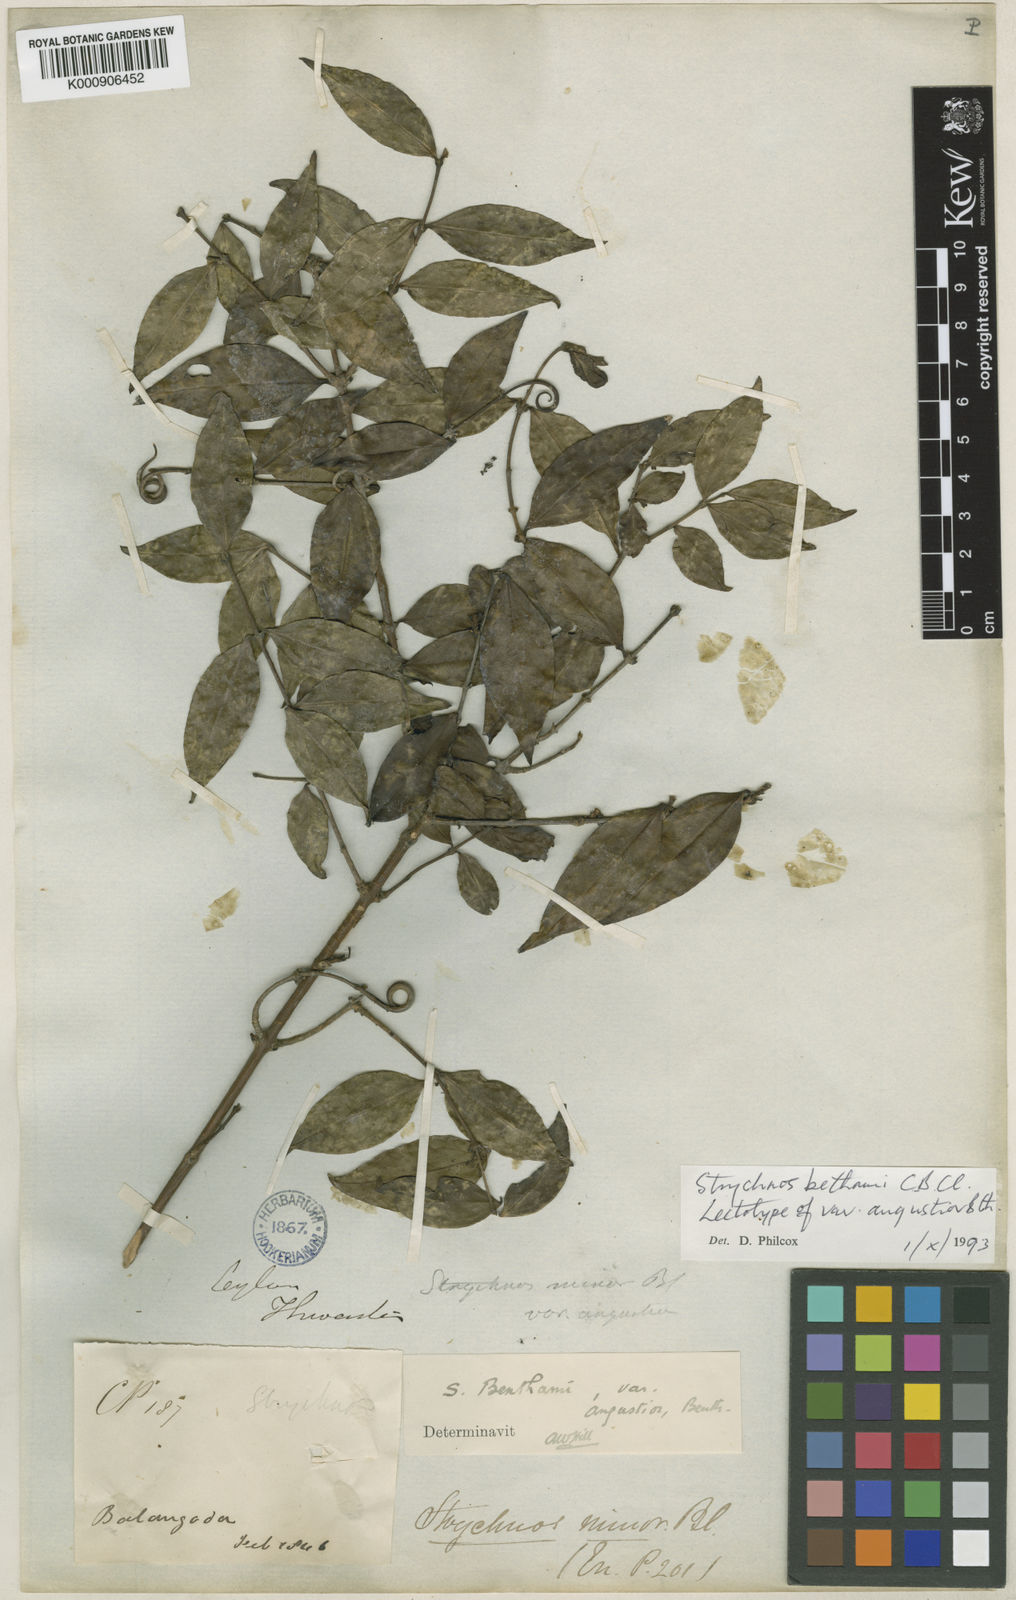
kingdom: Plantae
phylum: Tracheophyta
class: Magnoliopsida
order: Gentianales
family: Loganiaceae
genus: Strychnos
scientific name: Strychnos benthamii
